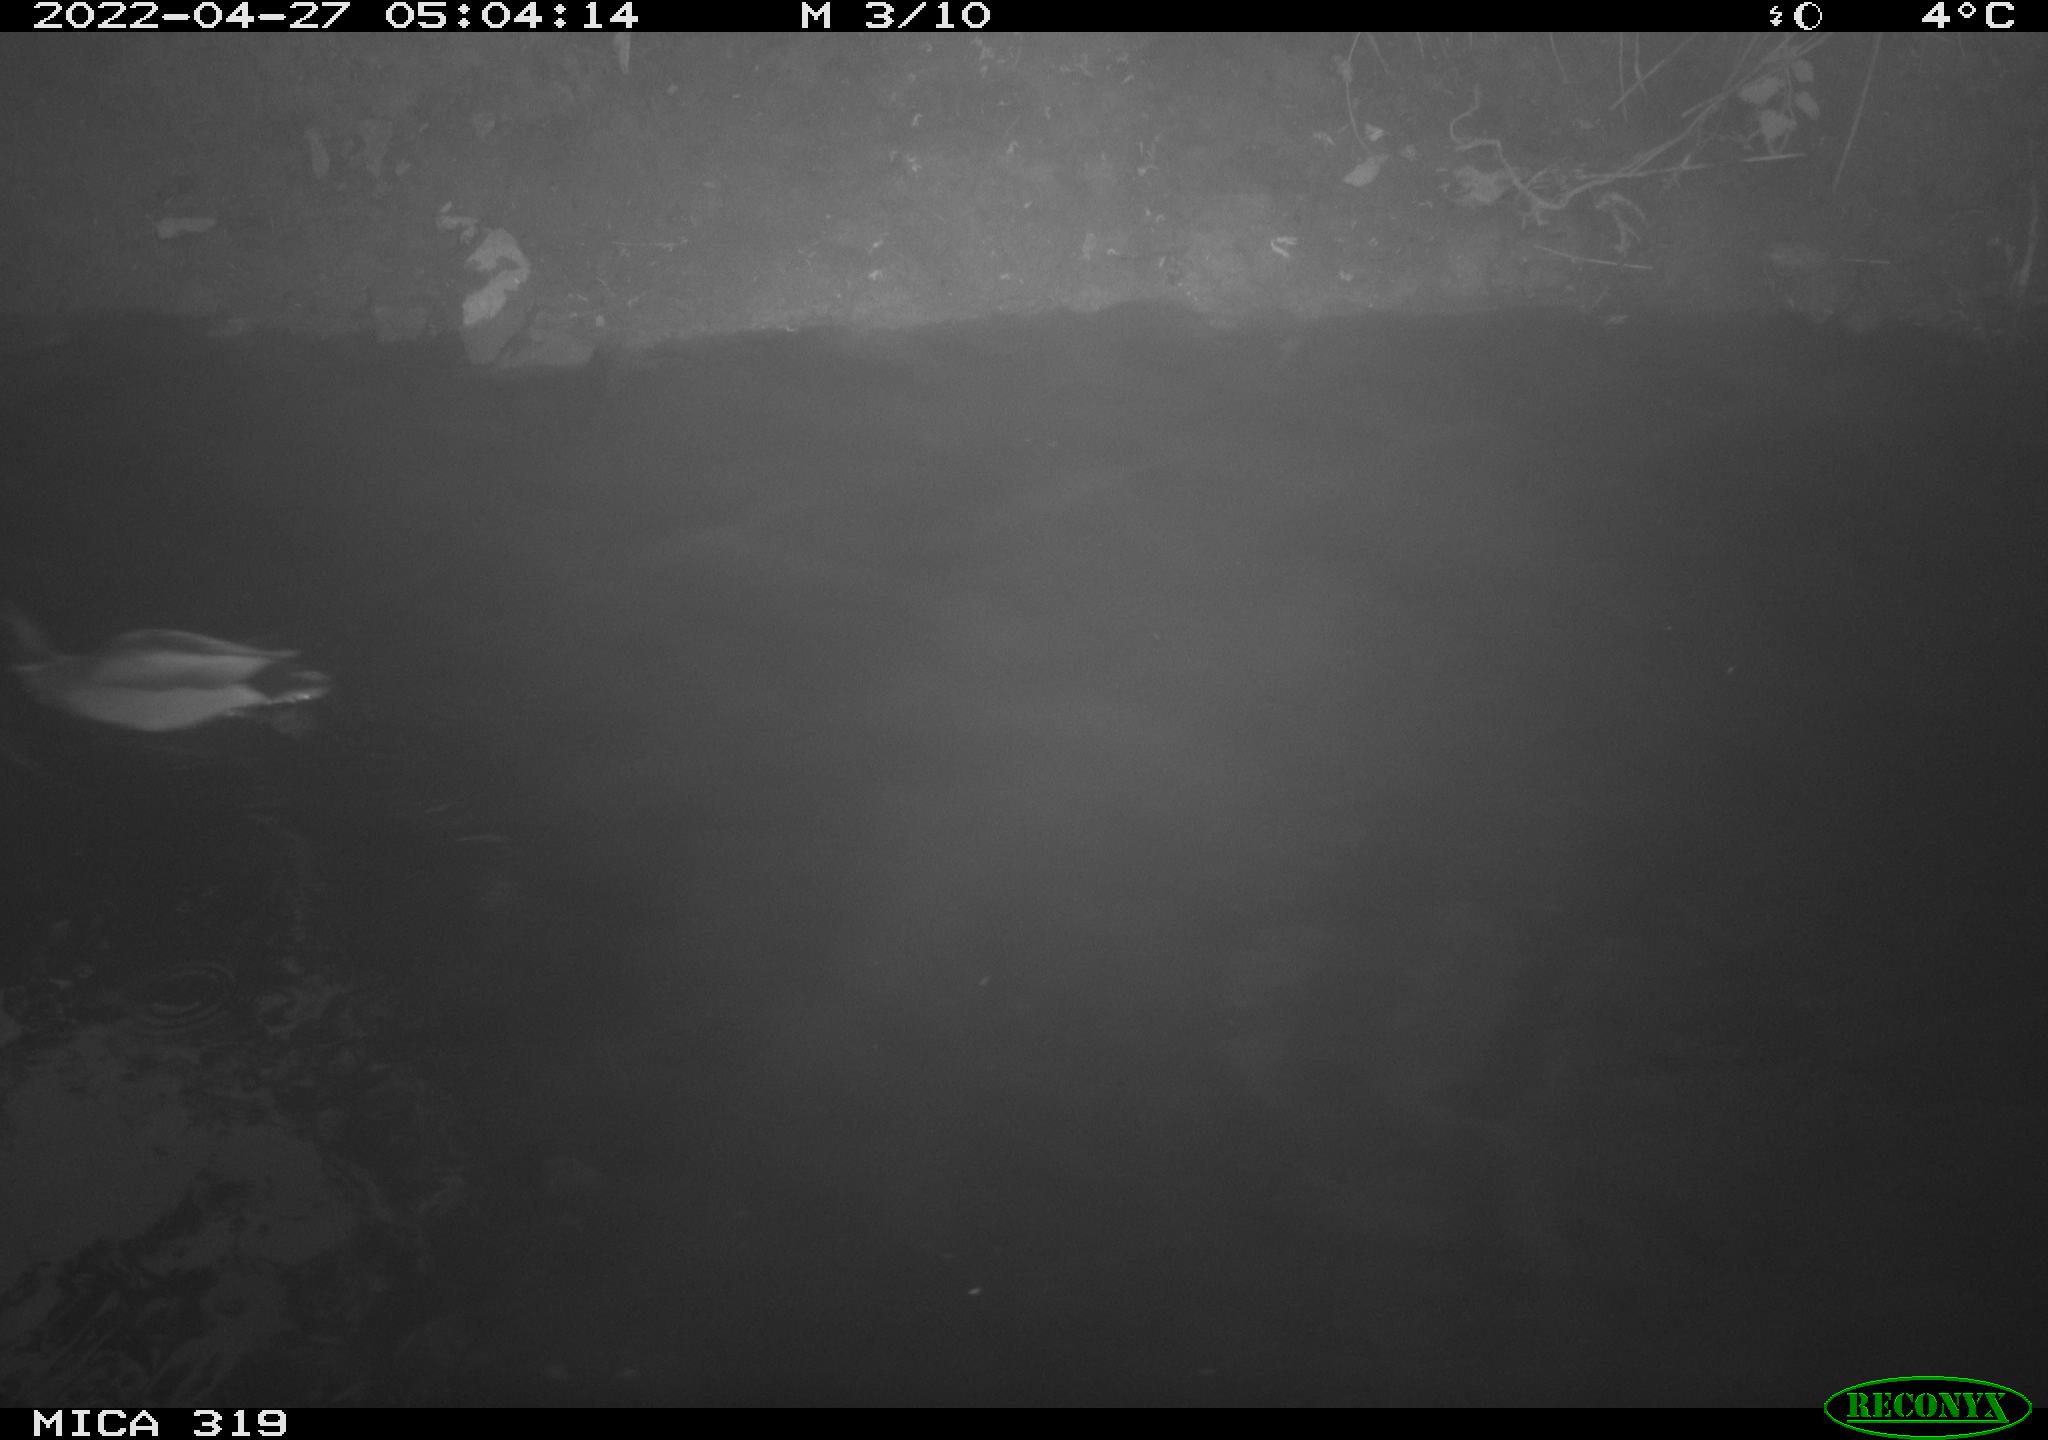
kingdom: Animalia
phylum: Chordata
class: Aves
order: Anseriformes
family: Anatidae
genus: Anas
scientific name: Anas platyrhynchos
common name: Mallard
